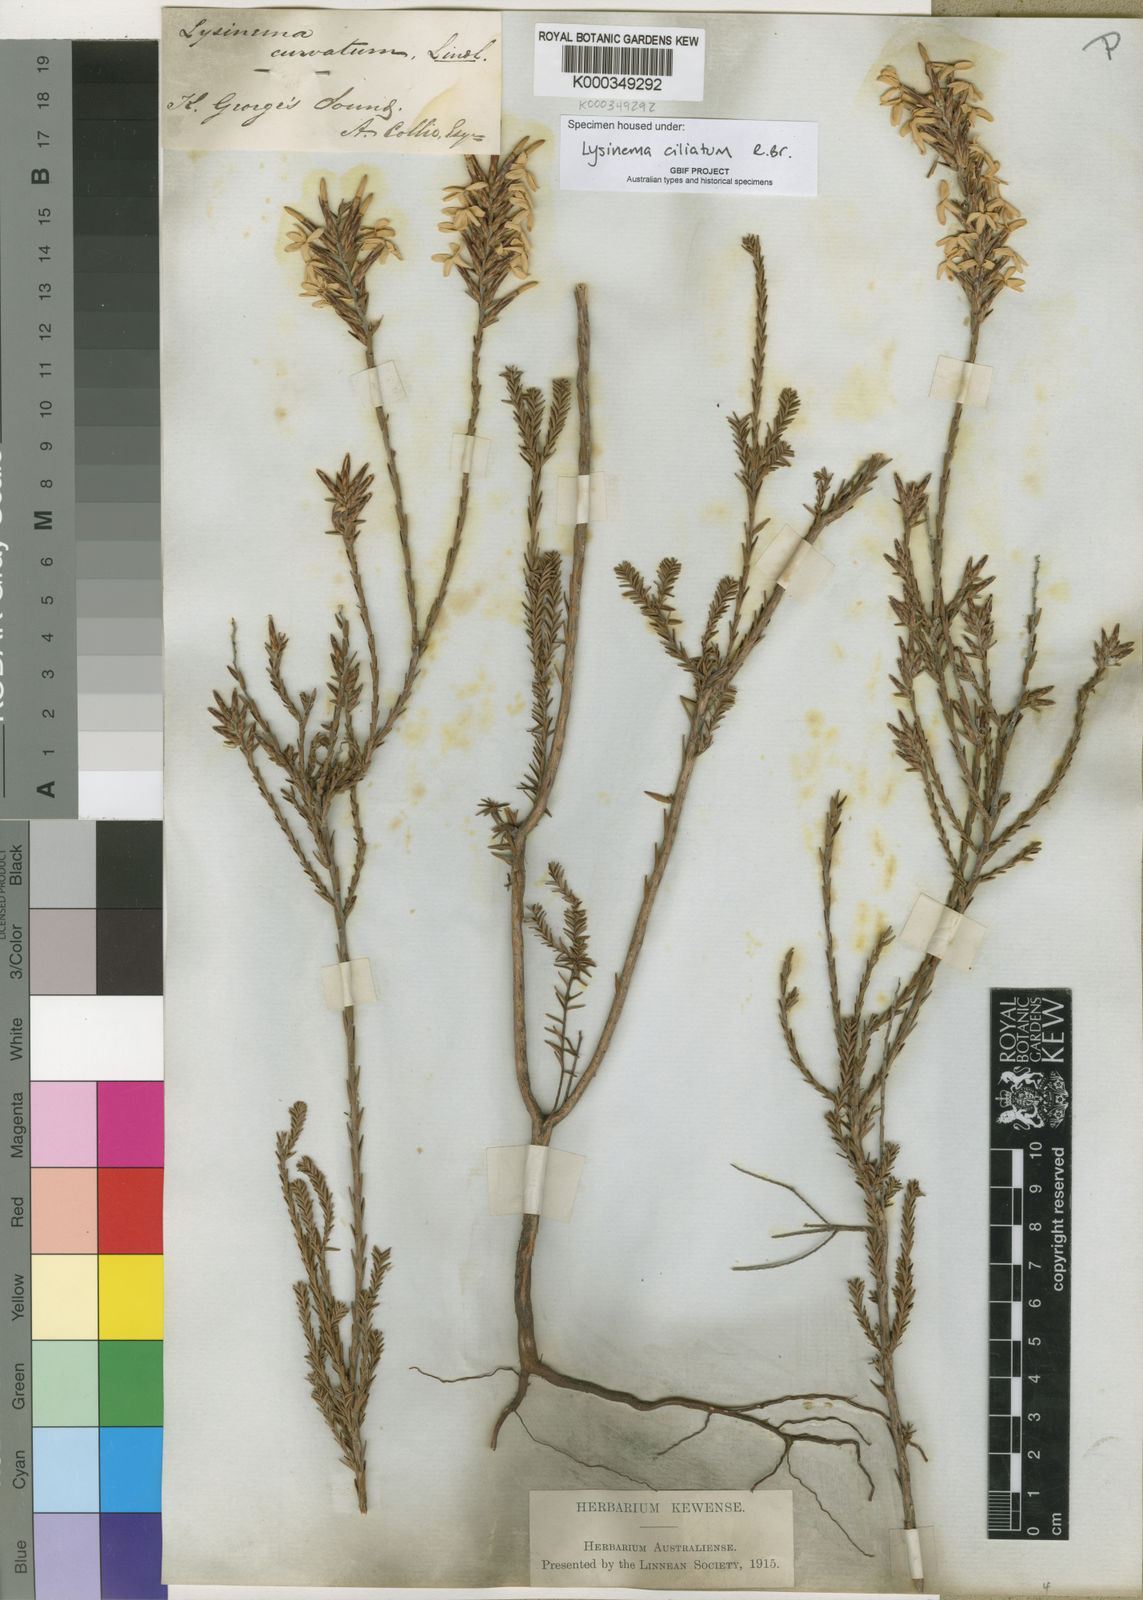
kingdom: Plantae
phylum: Tracheophyta
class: Magnoliopsida
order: Ericales
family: Ericaceae
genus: Lysinema
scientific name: Lysinema ciliatum
